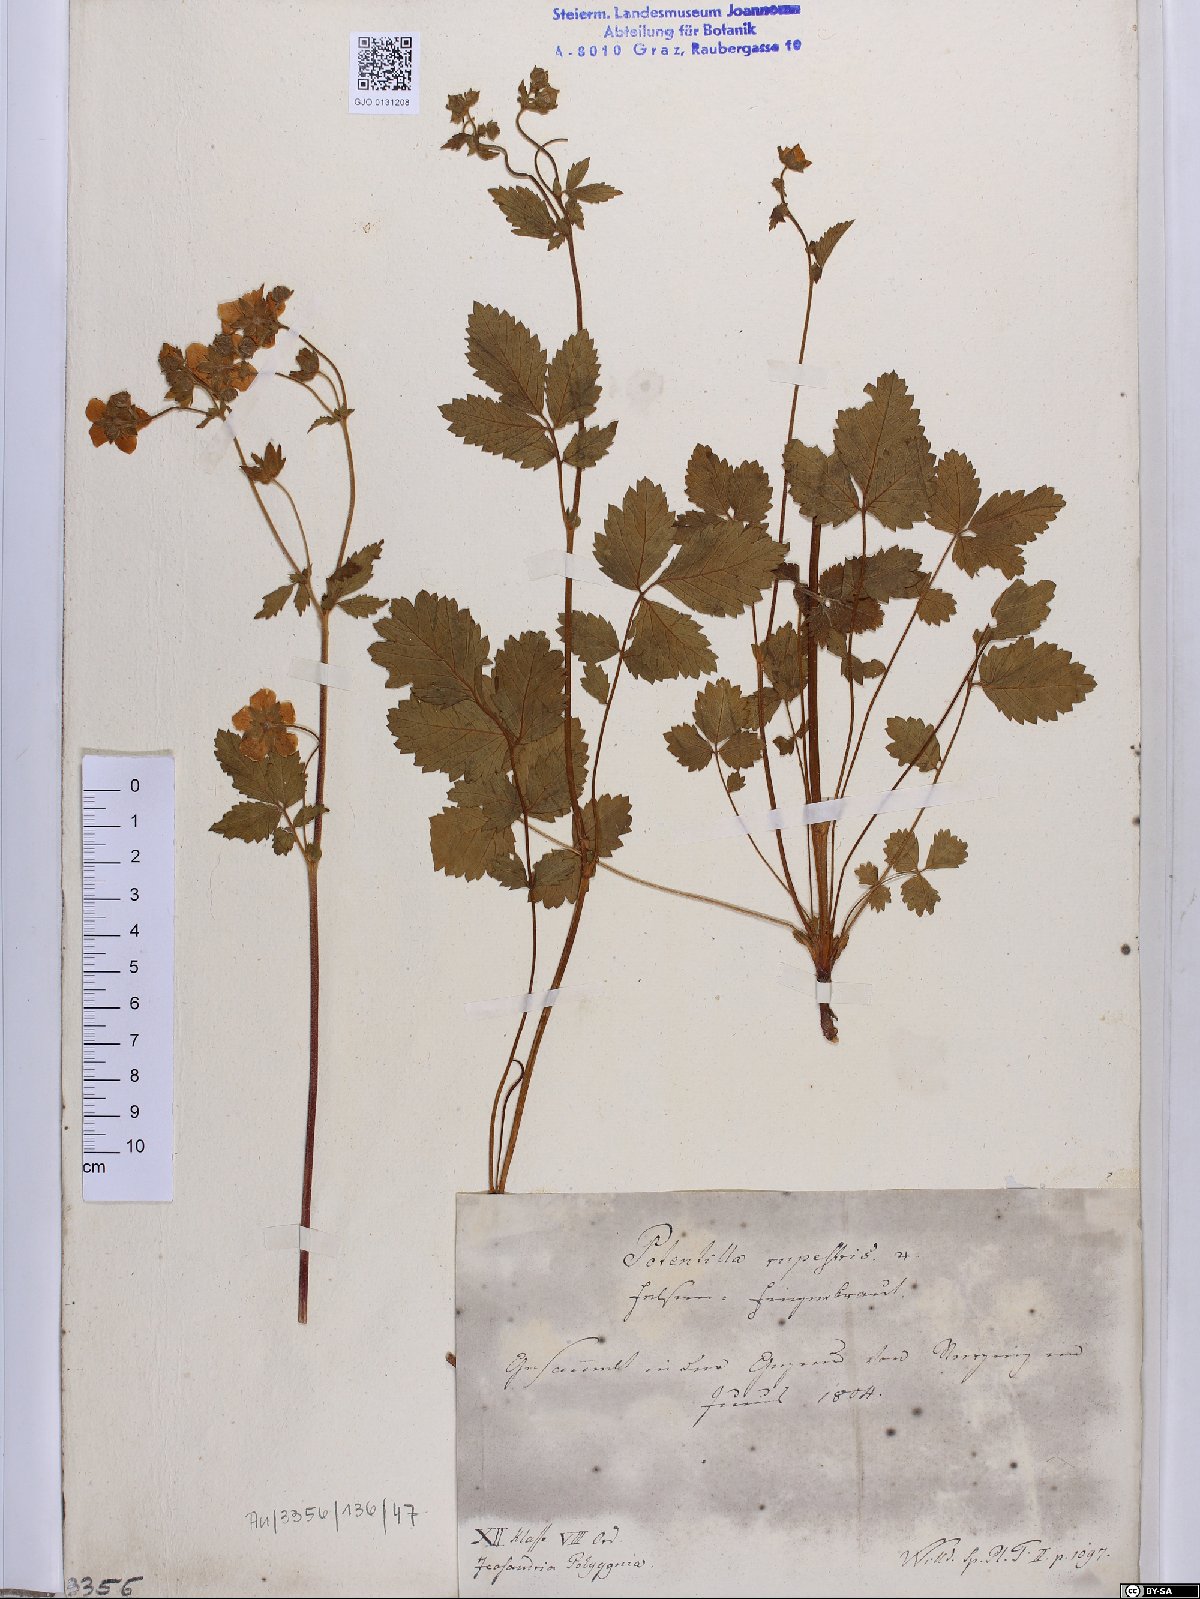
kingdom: Plantae
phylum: Tracheophyta
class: Magnoliopsida
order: Rosales
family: Rosaceae
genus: Drymocallis
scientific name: Drymocallis rupestris
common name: Rock cinquefoil
